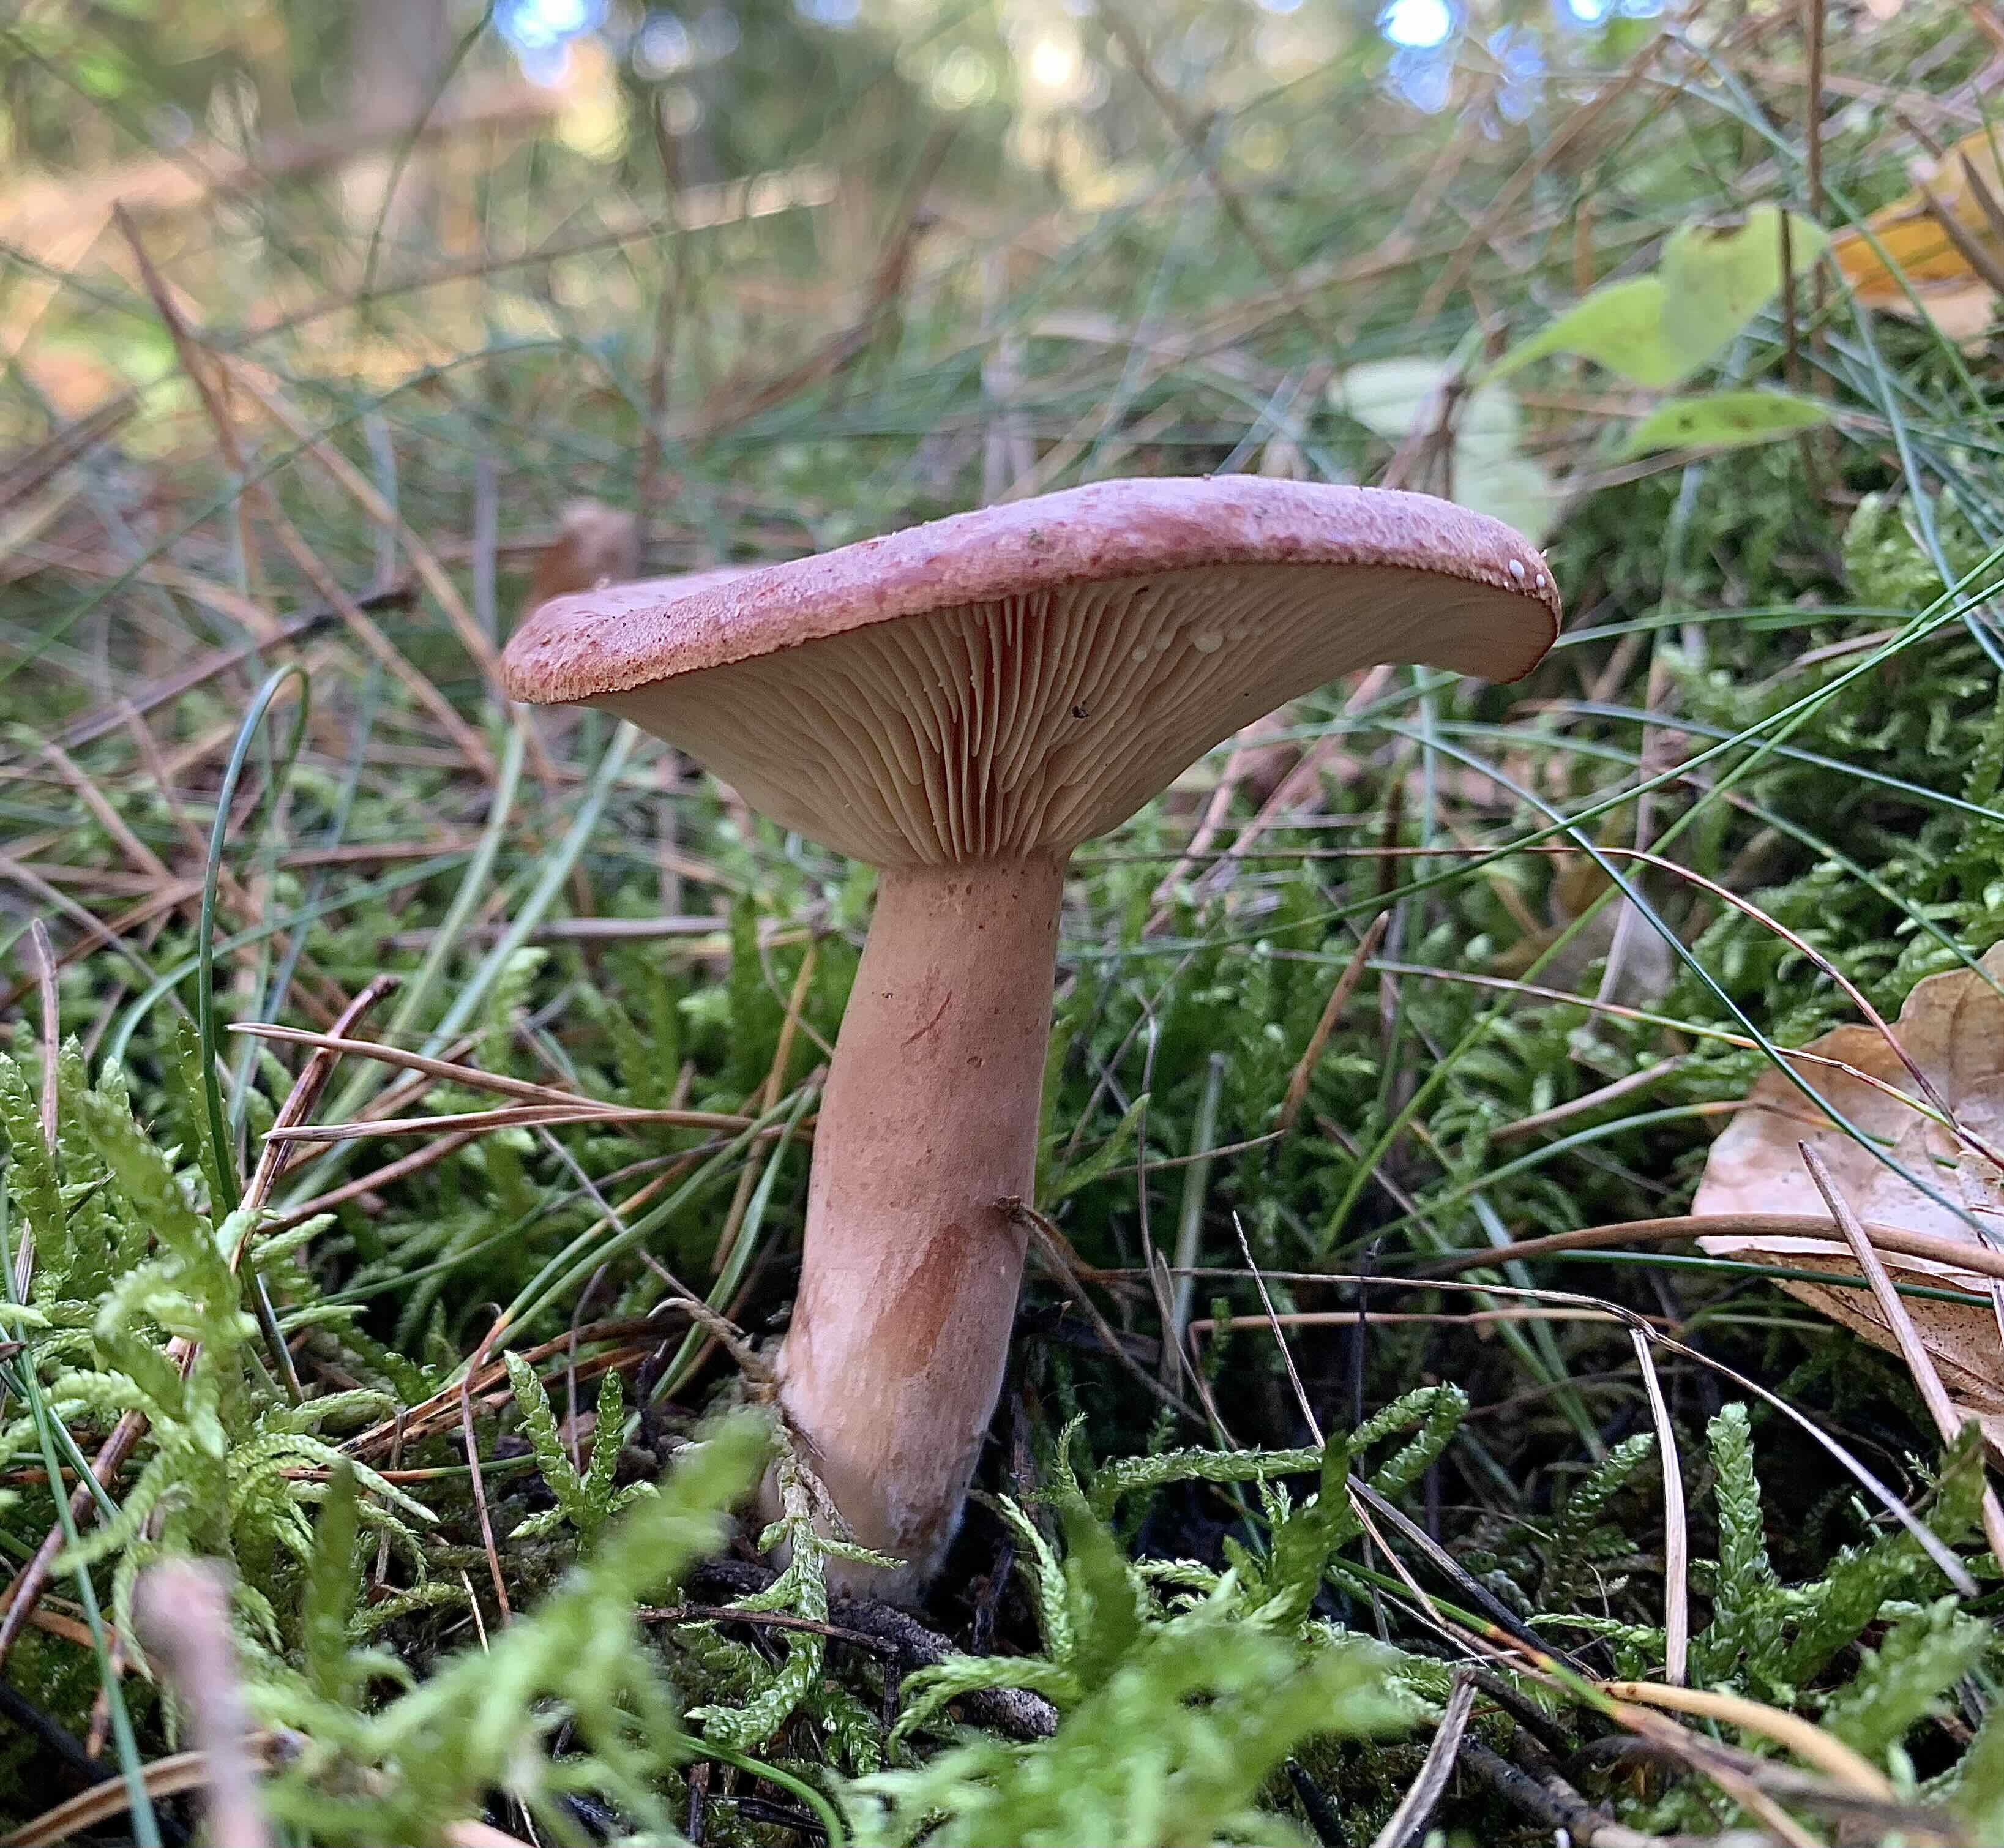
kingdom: Fungi
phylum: Basidiomycota
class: Agaricomycetes
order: Russulales
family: Russulaceae
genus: Lactarius
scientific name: Lactarius rufus
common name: rødbrun mælkehat
